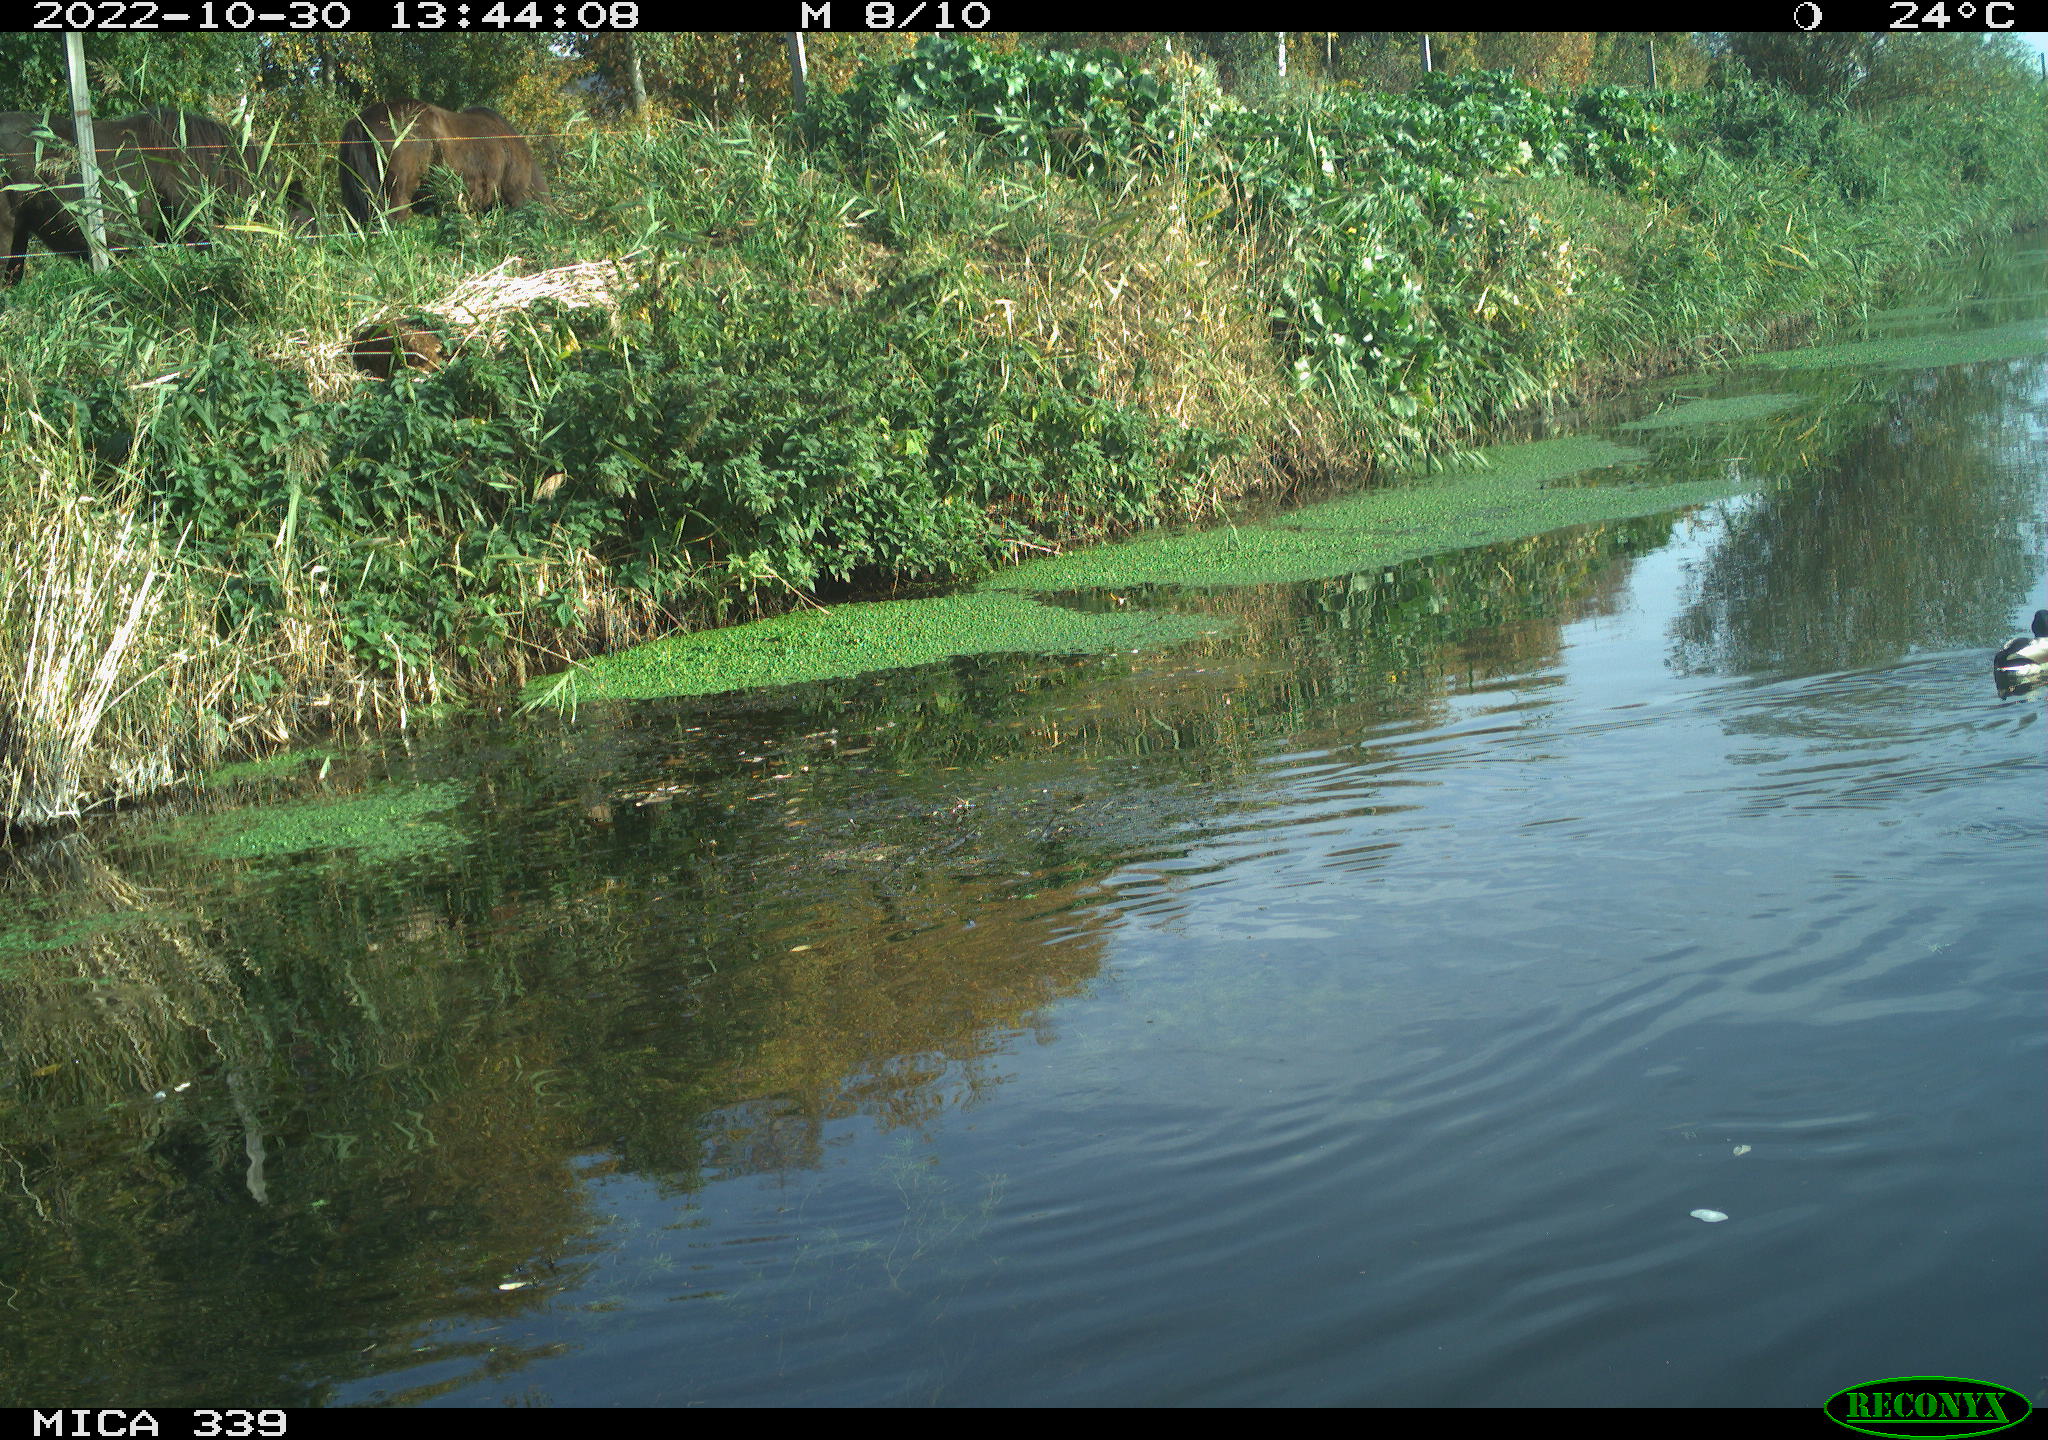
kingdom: Animalia
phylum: Chordata
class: Aves
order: Anseriformes
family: Anatidae
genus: Anas
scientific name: Anas platyrhynchos
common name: Mallard
